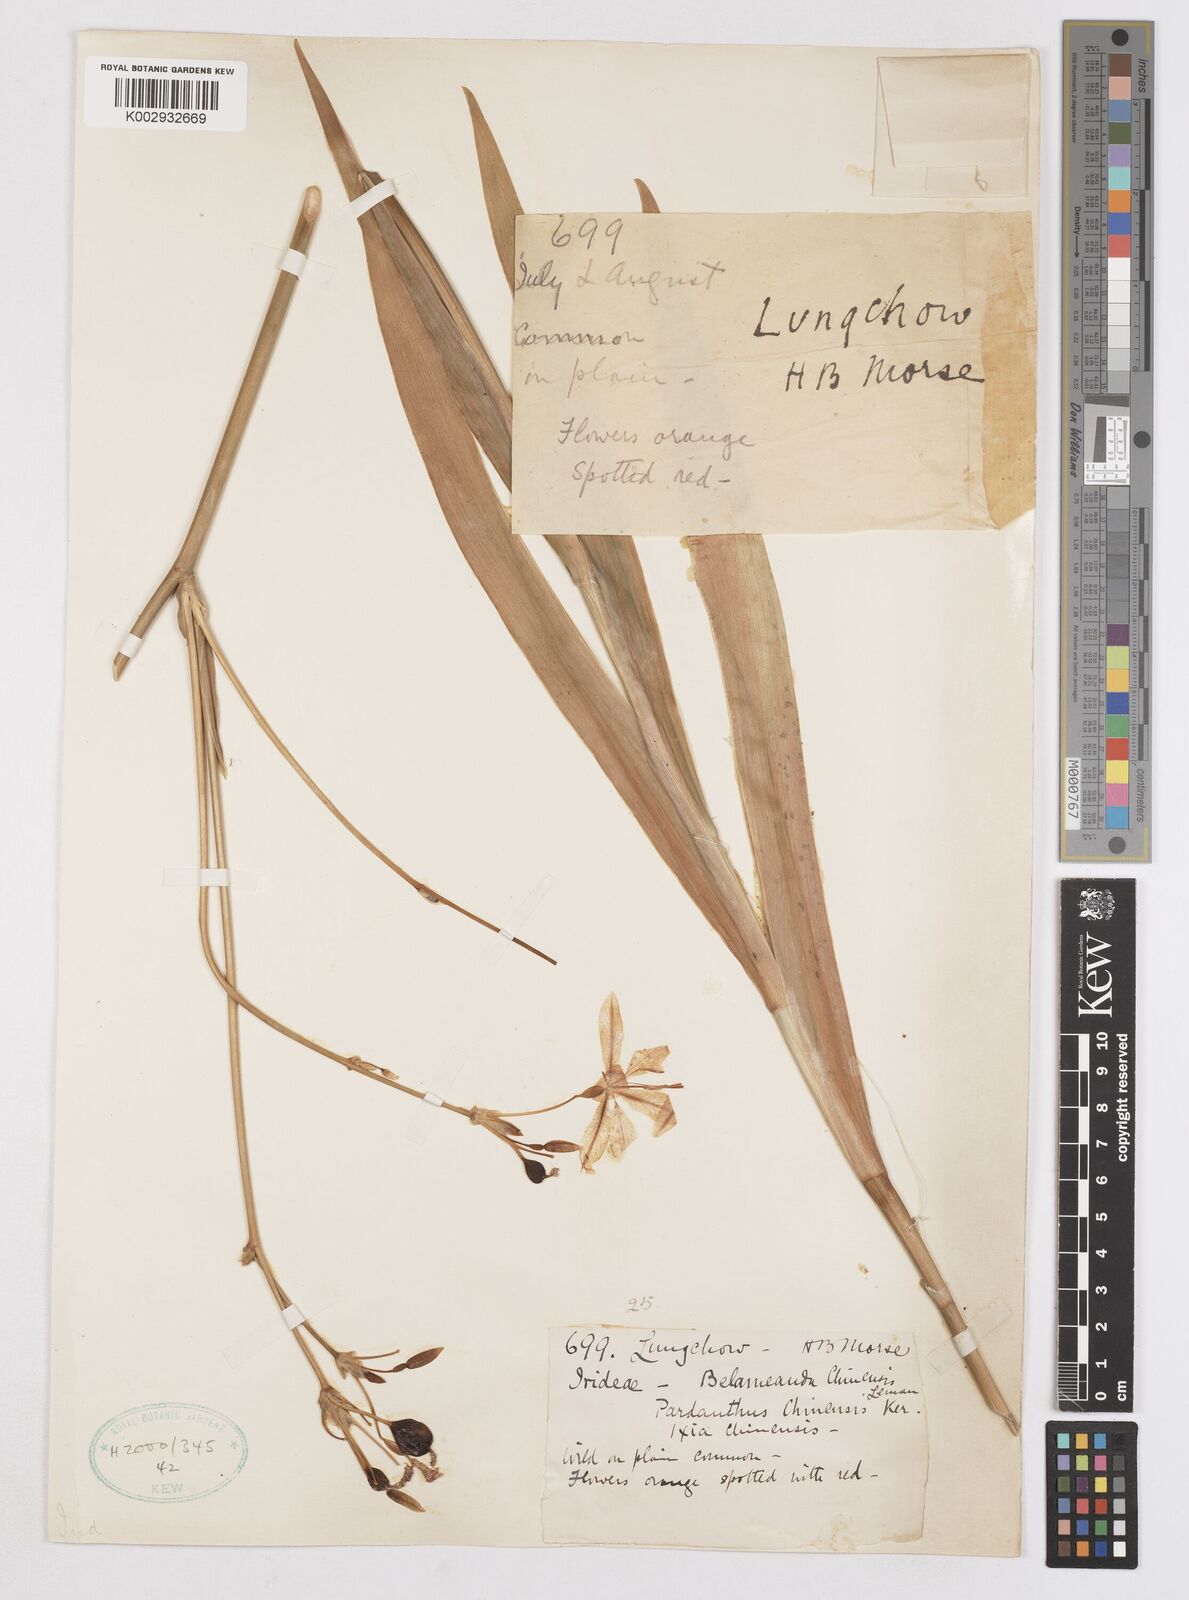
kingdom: Plantae
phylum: Tracheophyta
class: Liliopsida
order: Asparagales
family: Iridaceae
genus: Iris
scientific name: Iris
